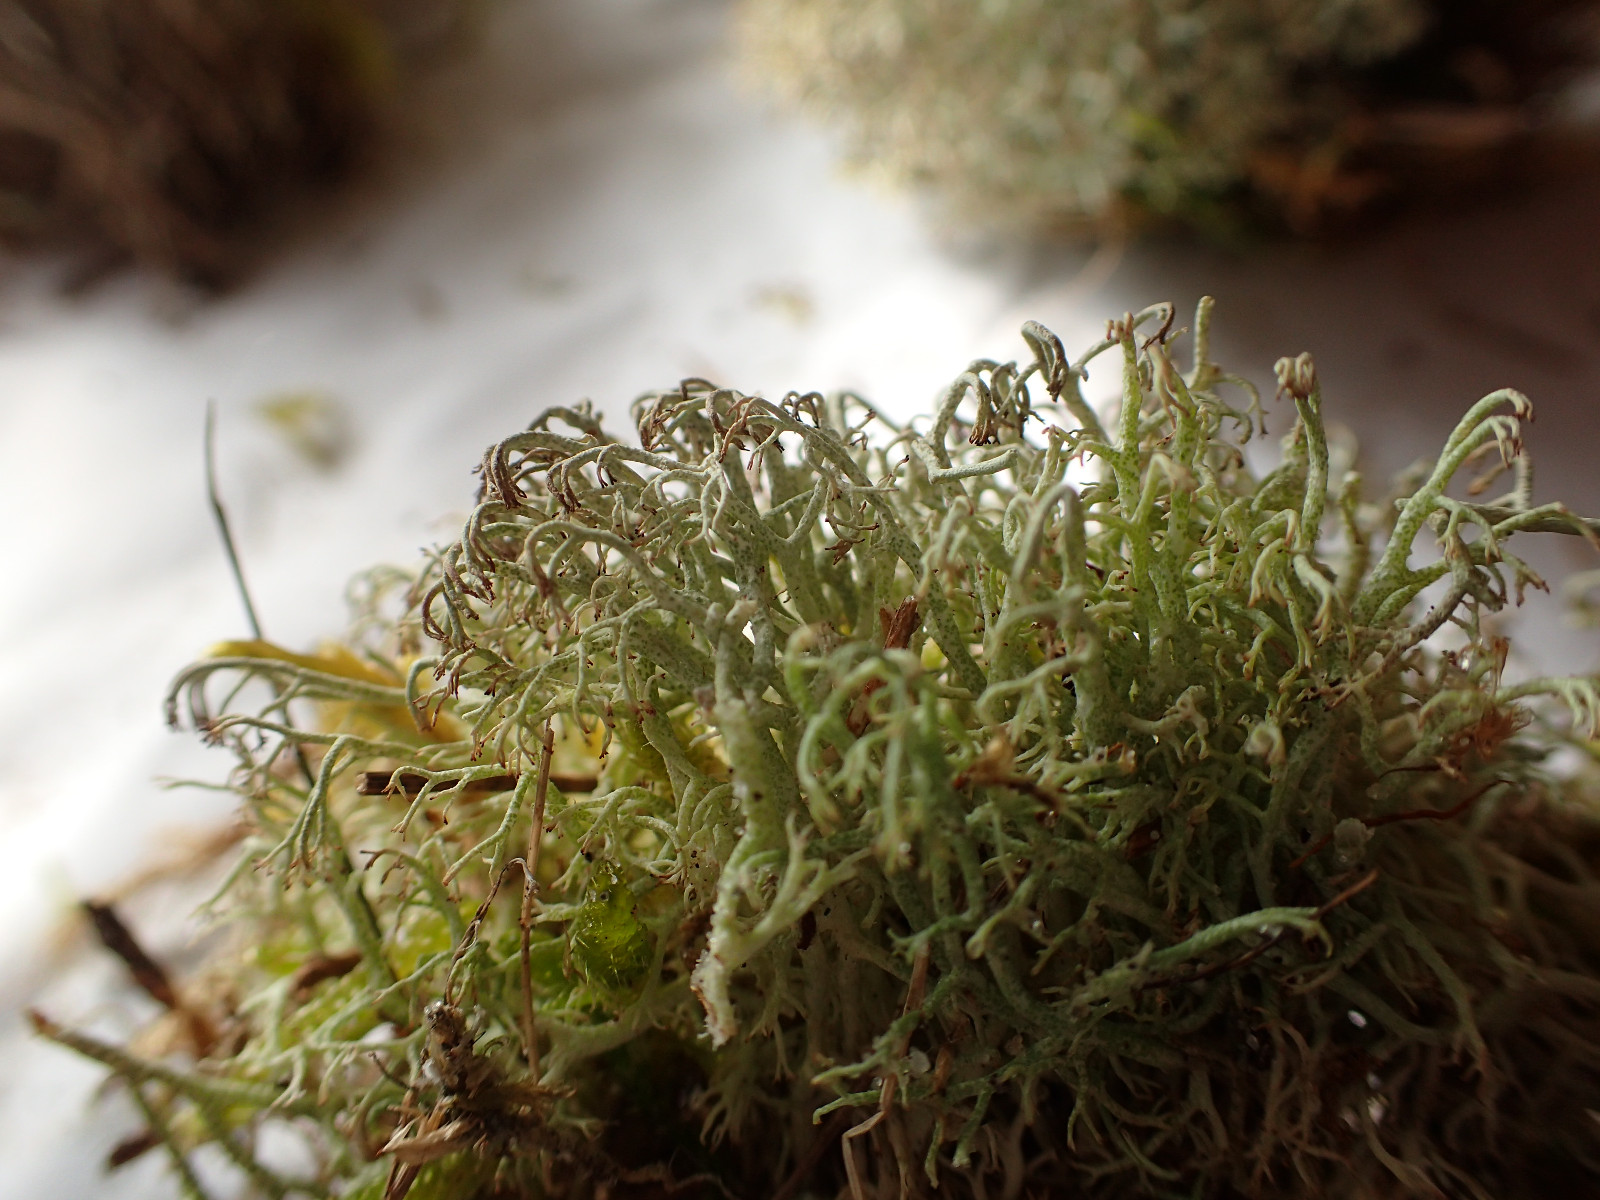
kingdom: Fungi
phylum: Ascomycota
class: Lecanoromycetes
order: Lecanorales
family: Cladoniaceae
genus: Cladonia
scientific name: Cladonia ciliata
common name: spinkel rensdyrlav
